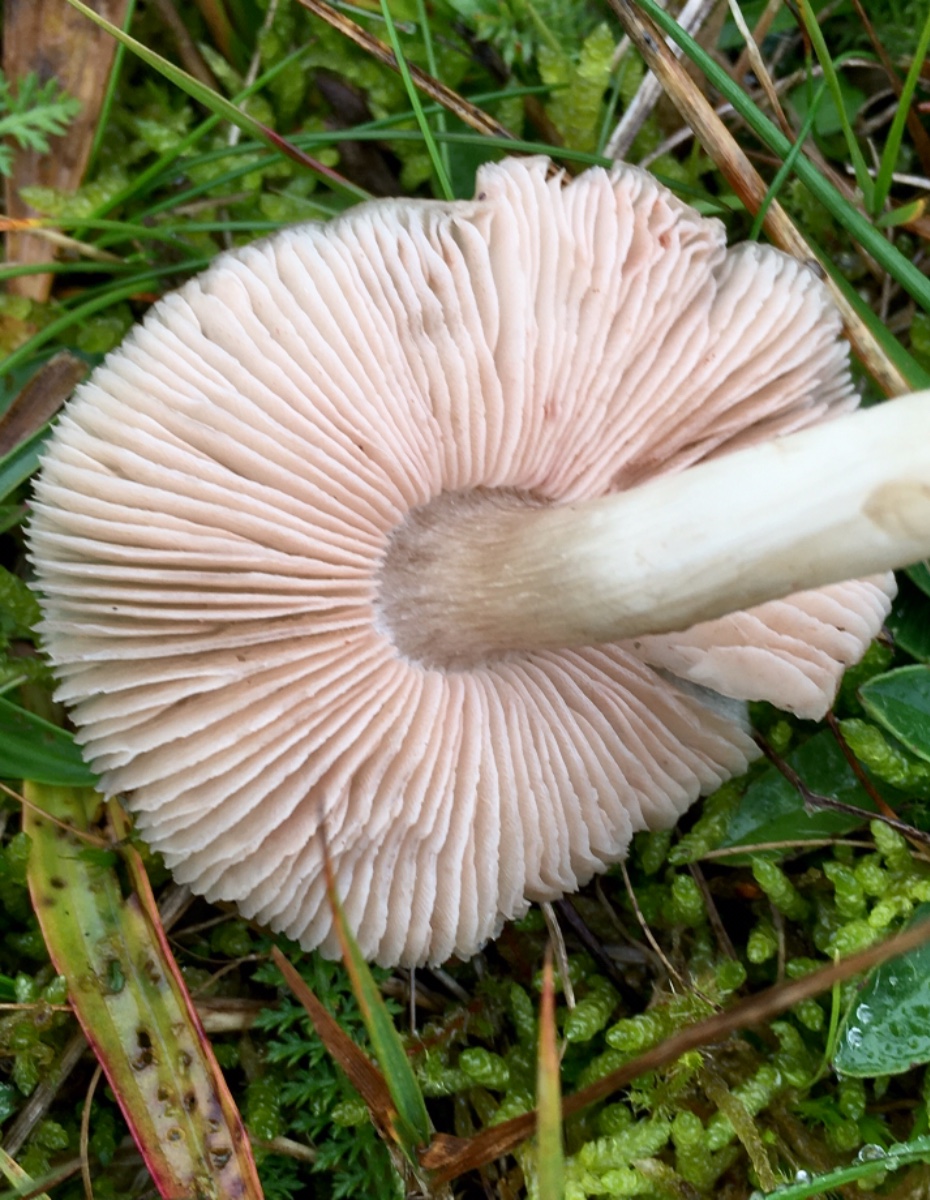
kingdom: Fungi
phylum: Basidiomycota
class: Agaricomycetes
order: Agaricales
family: Entolomataceae
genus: Entoloma
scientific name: Entoloma prunuloides
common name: mel-rødblad
